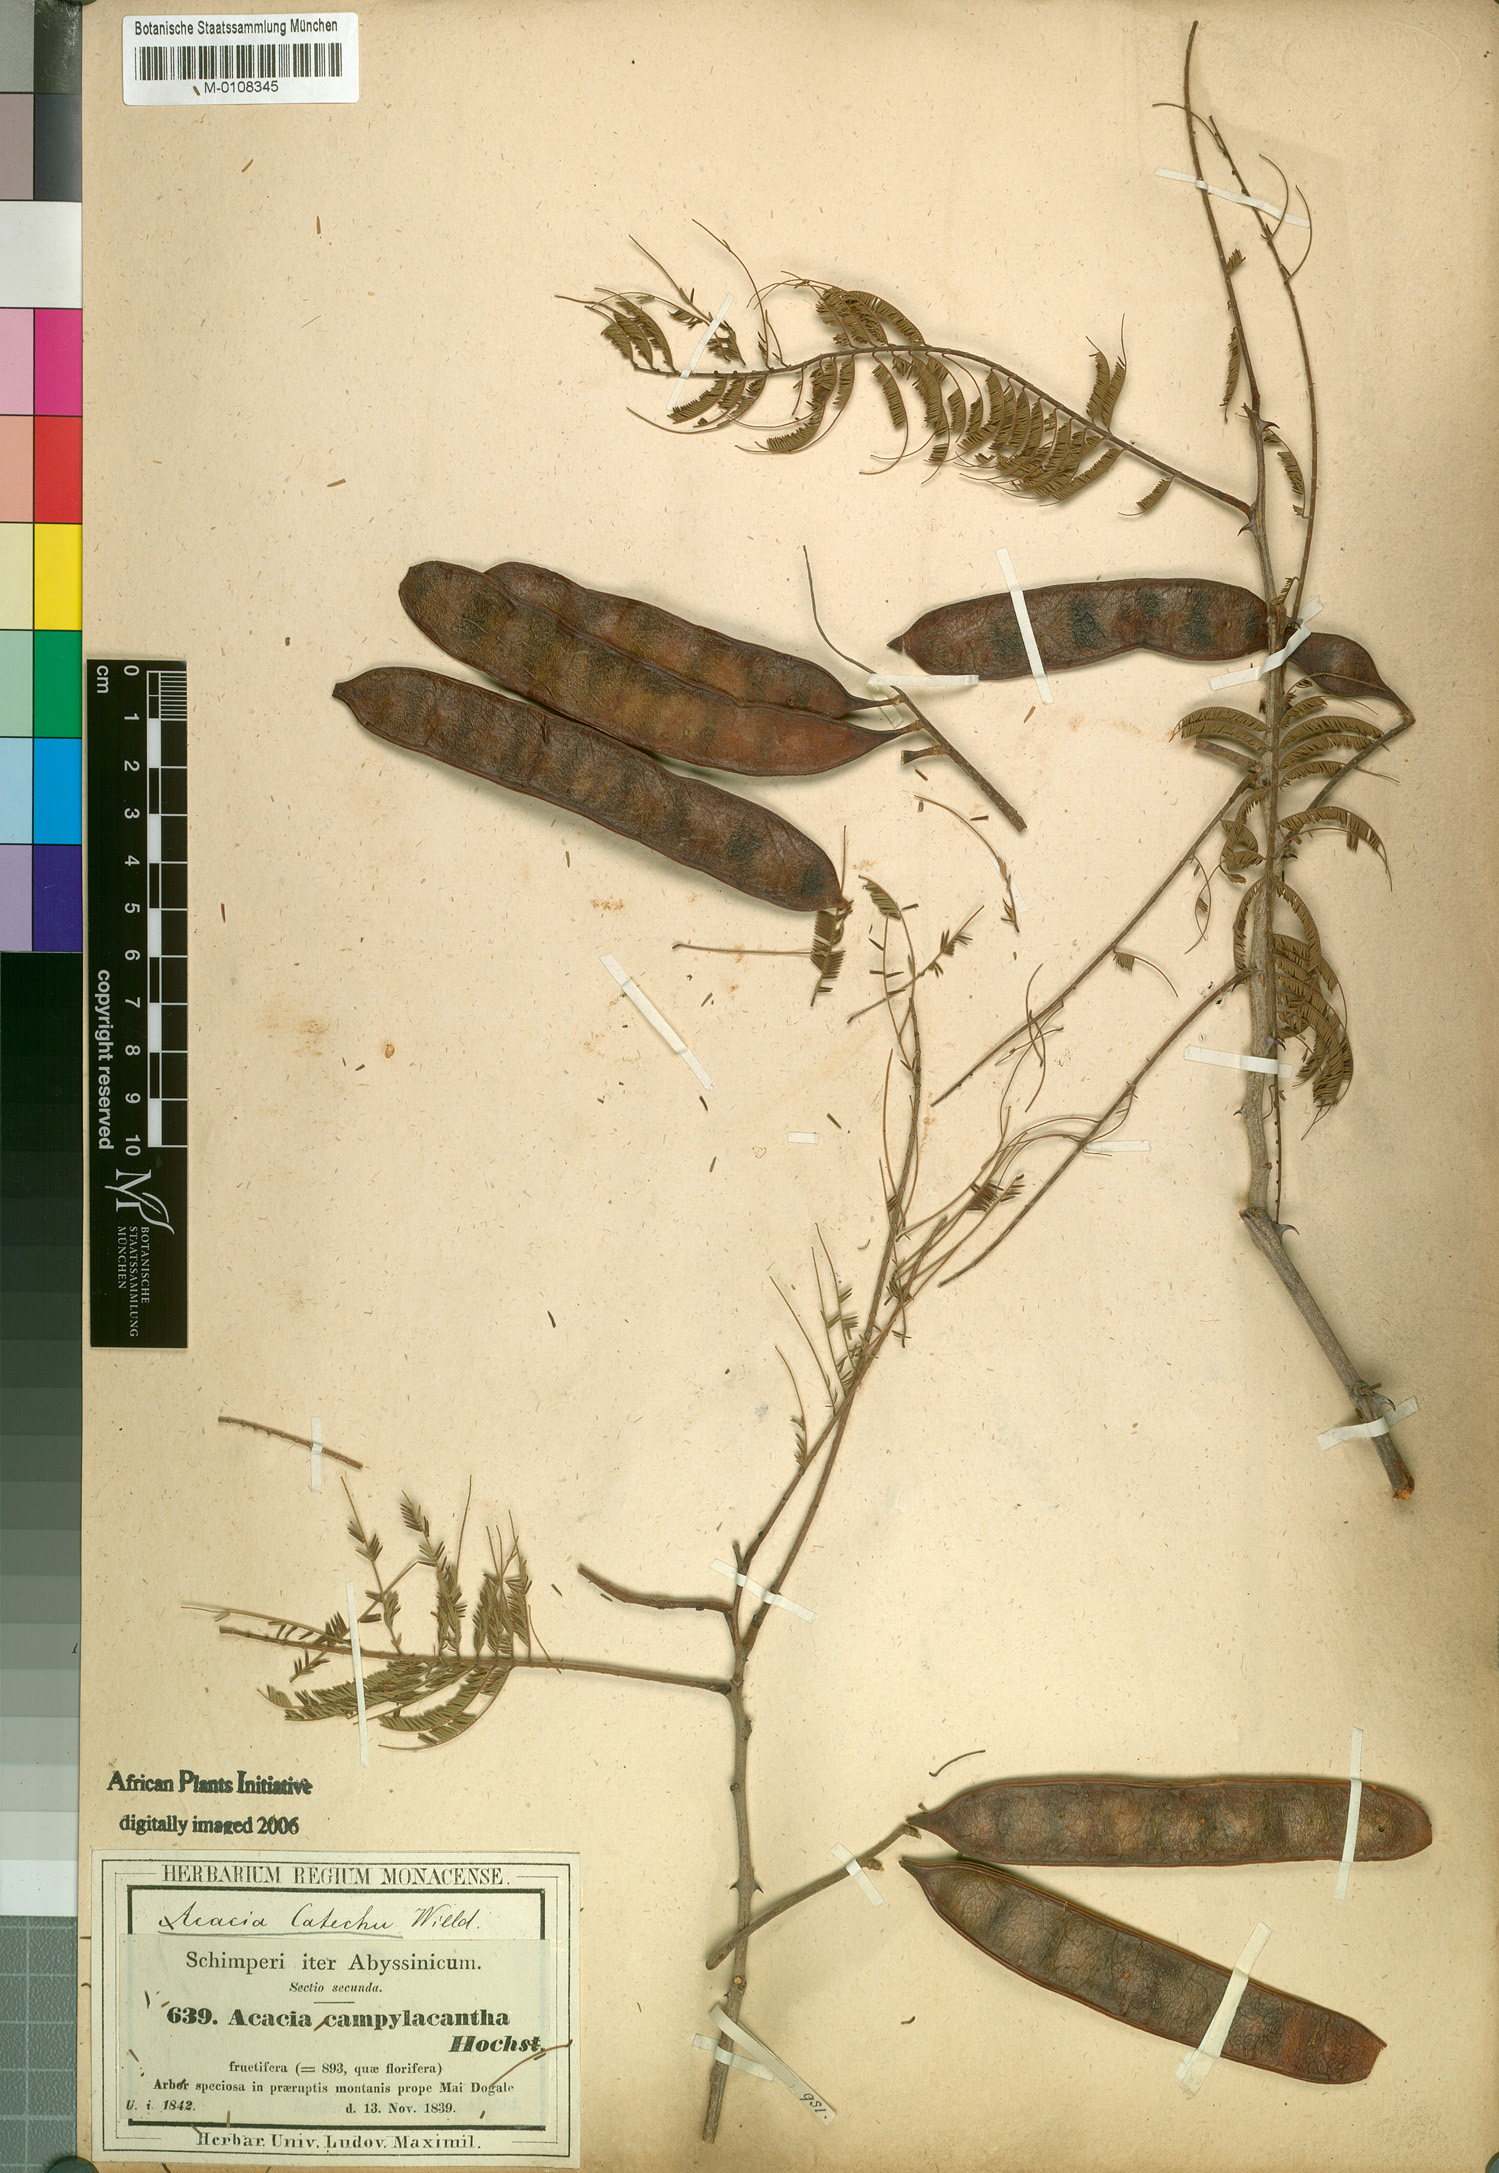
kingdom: Plantae
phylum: Tracheophyta
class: Magnoliopsida
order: Fabales
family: Fabaceae
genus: Senegalia
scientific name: Senegalia polyacantha
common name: Whitethorn
